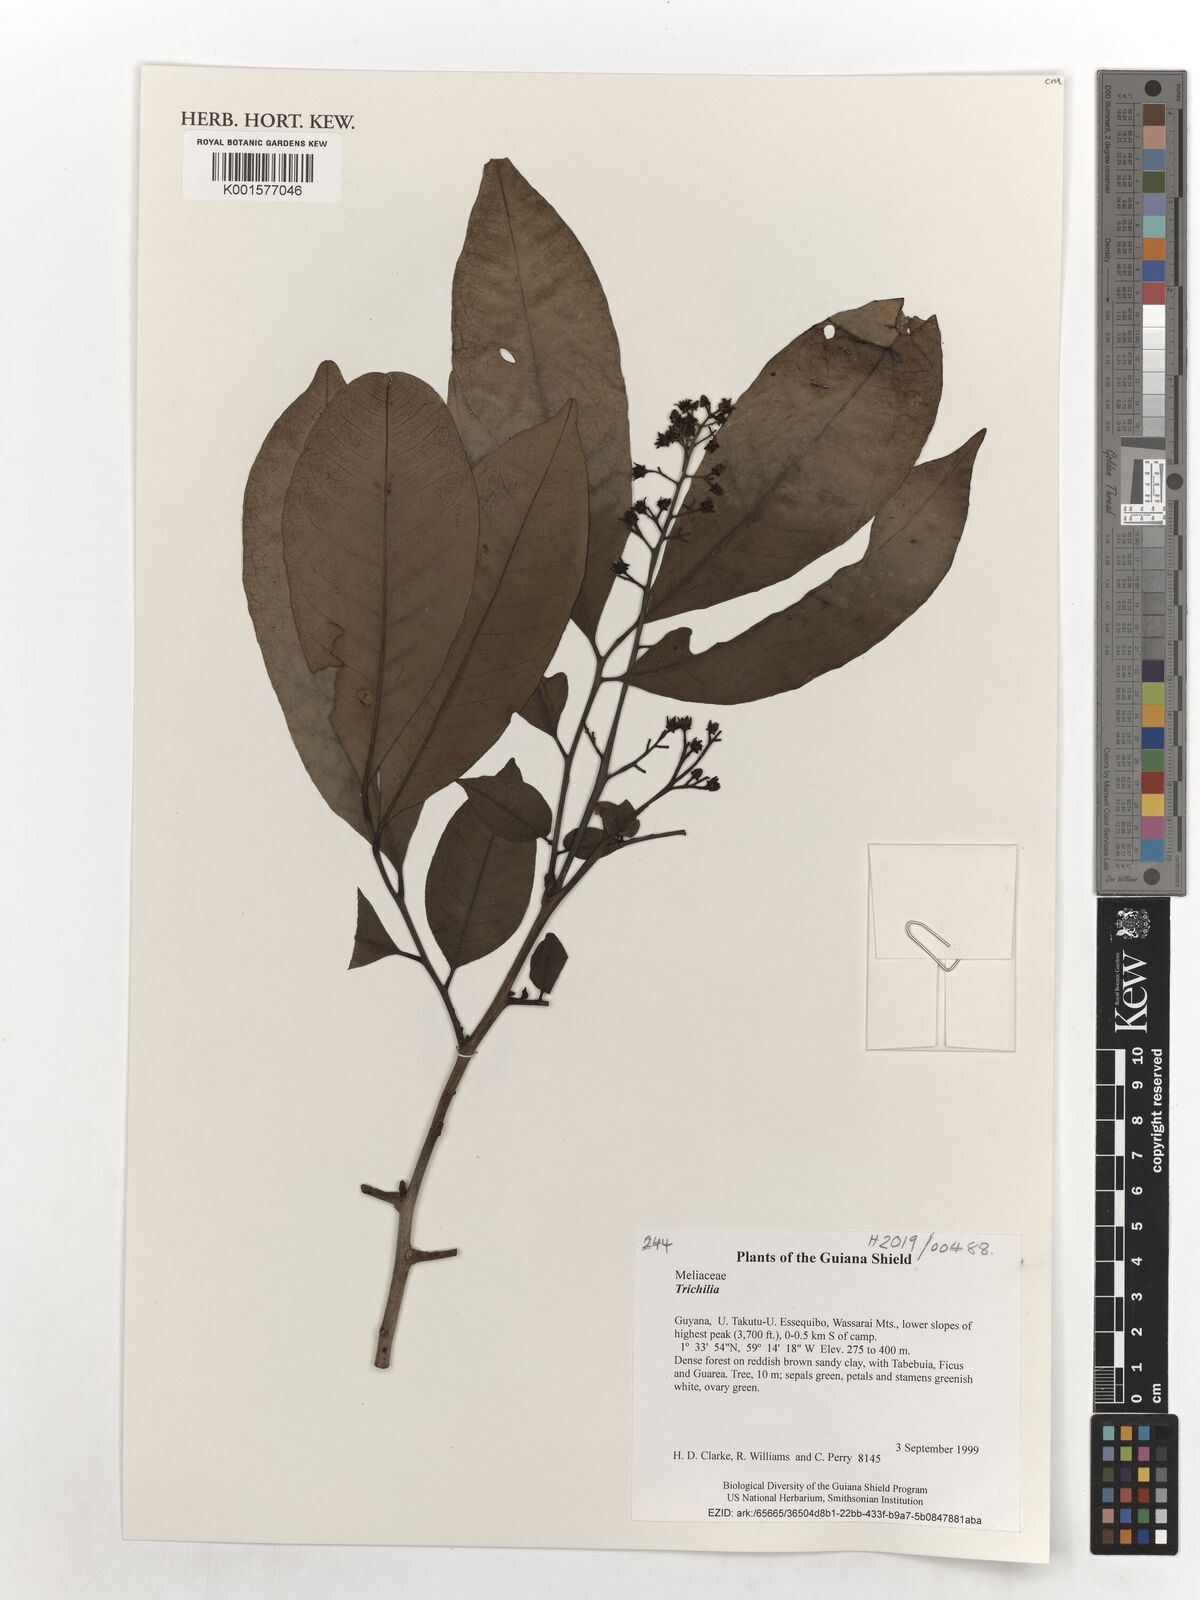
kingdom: Plantae
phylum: Tracheophyta
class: Magnoliopsida
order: Sapindales
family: Meliaceae
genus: Trichilia
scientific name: Trichilia
